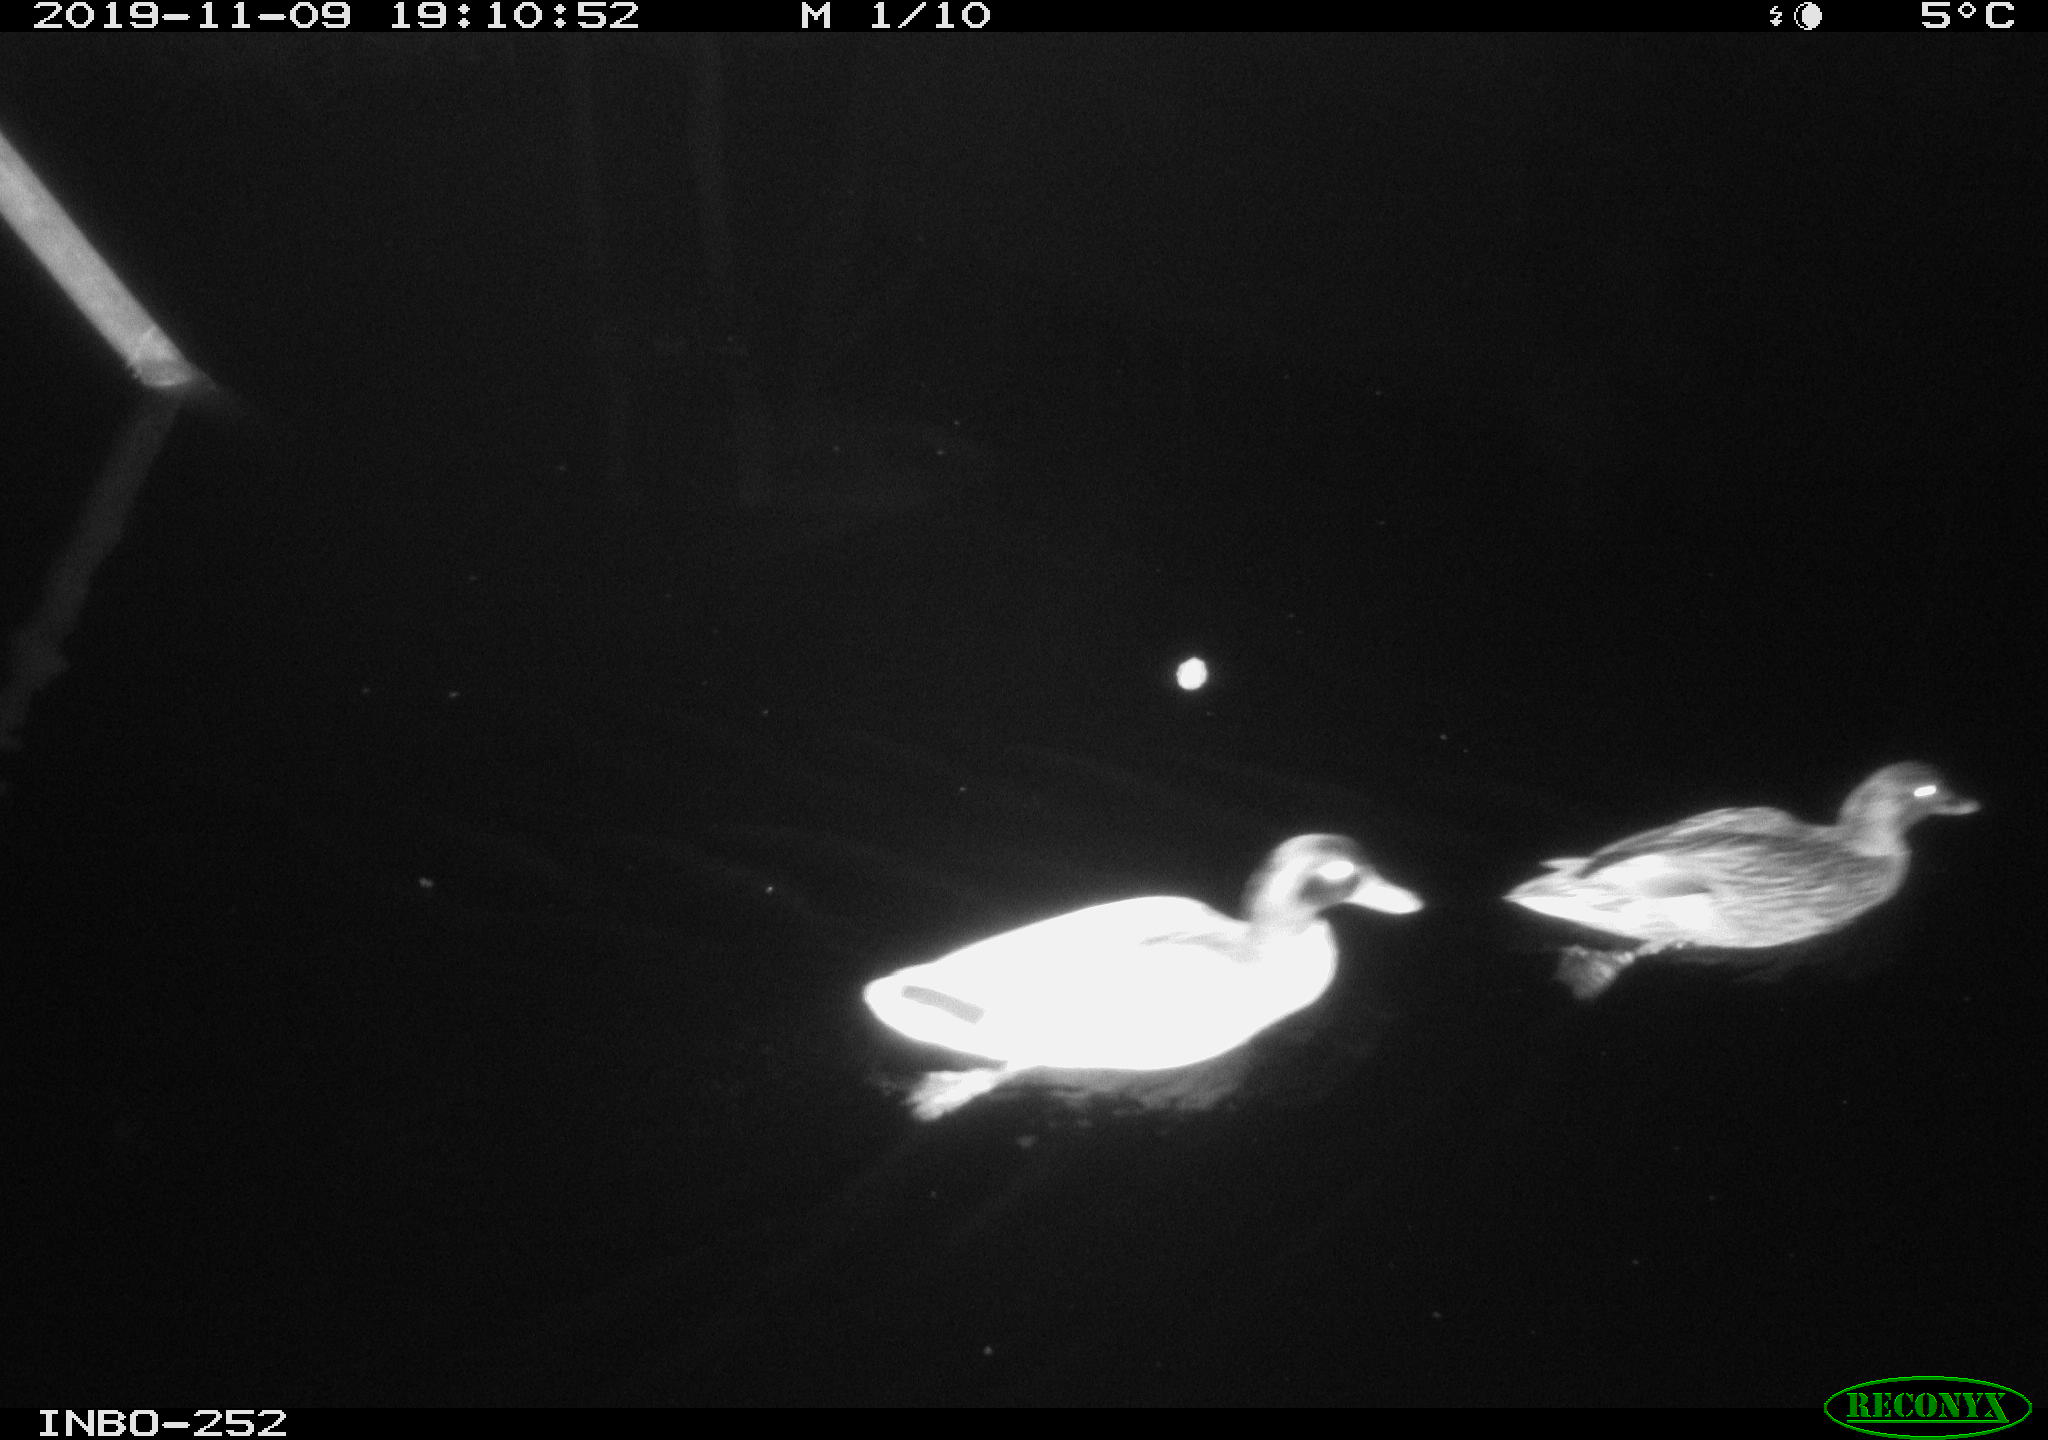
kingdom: Animalia
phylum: Chordata
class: Aves
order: Anseriformes
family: Anatidae
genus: Anas
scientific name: Anas platyrhynchos
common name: Mallard
